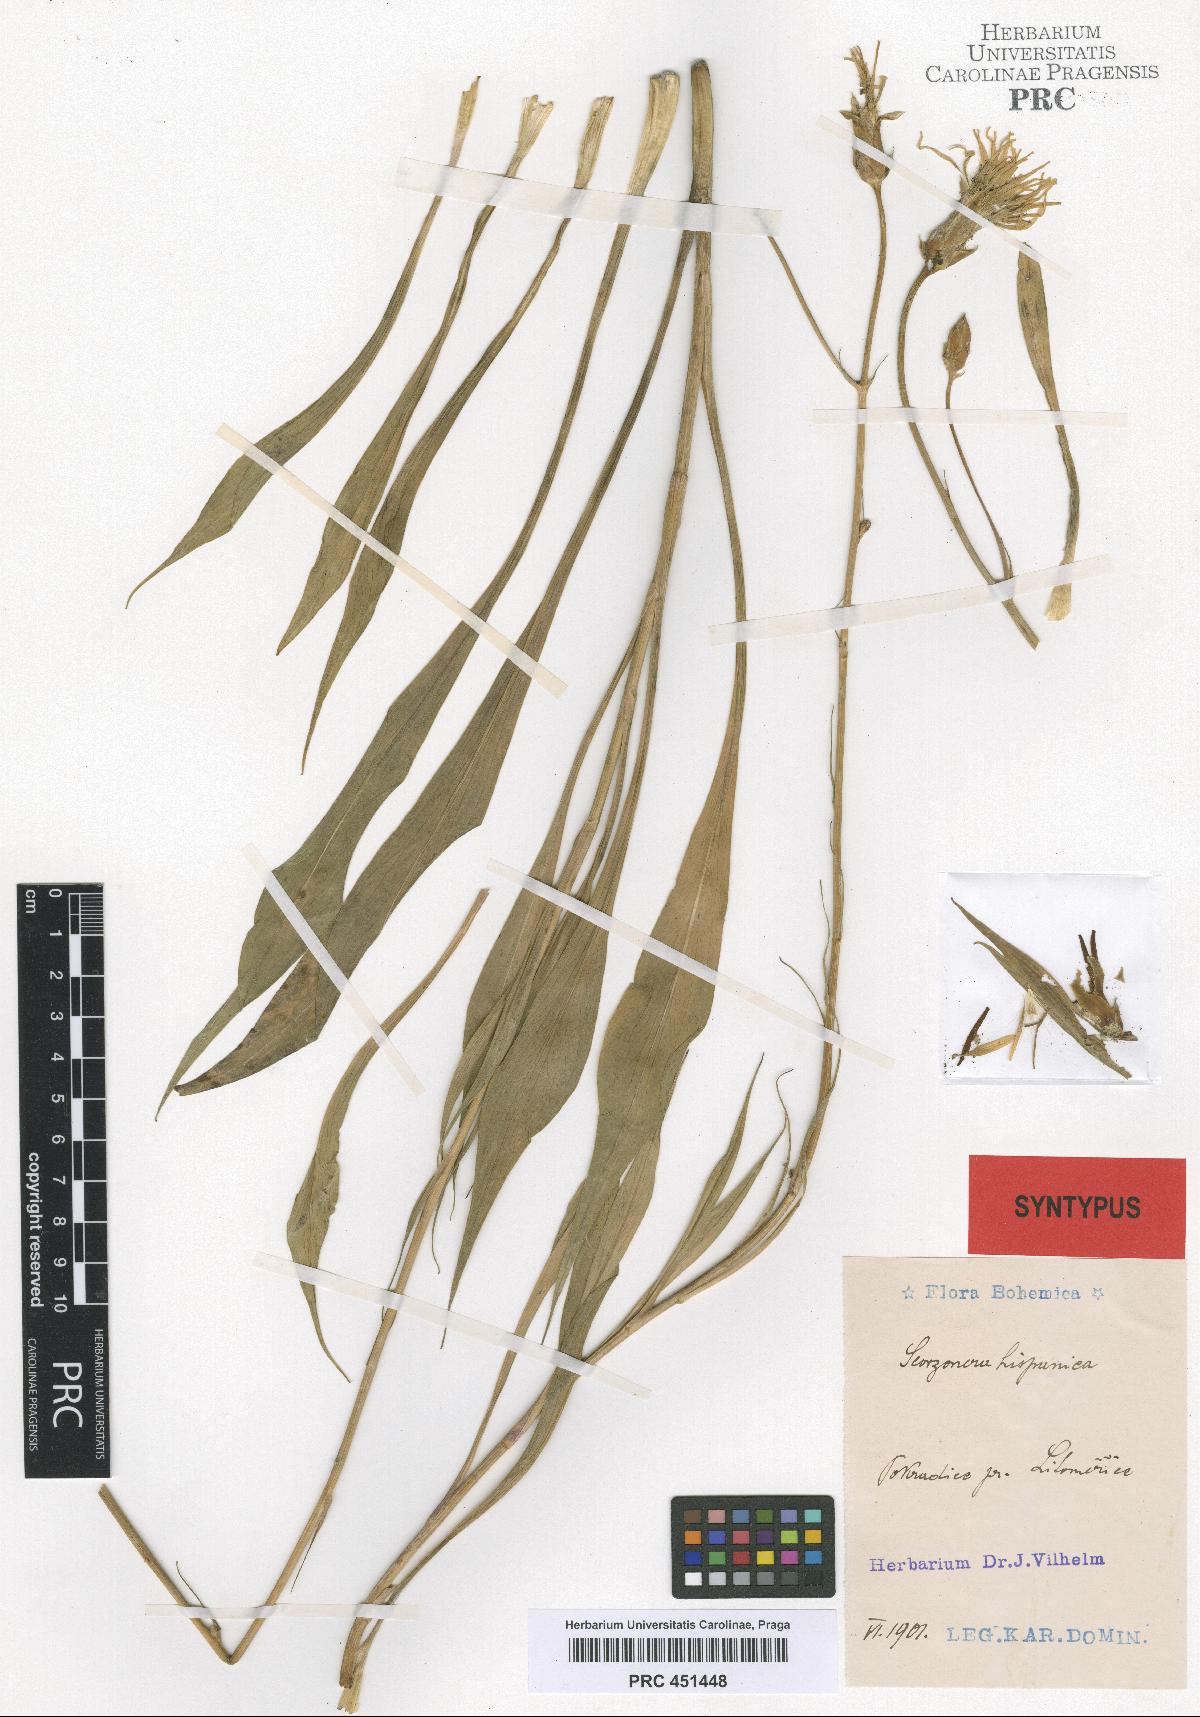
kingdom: Plantae
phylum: Tracheophyta
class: Magnoliopsida
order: Asterales
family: Asteraceae
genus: Pseudopodospermum
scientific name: Pseudopodospermum hispanicum
